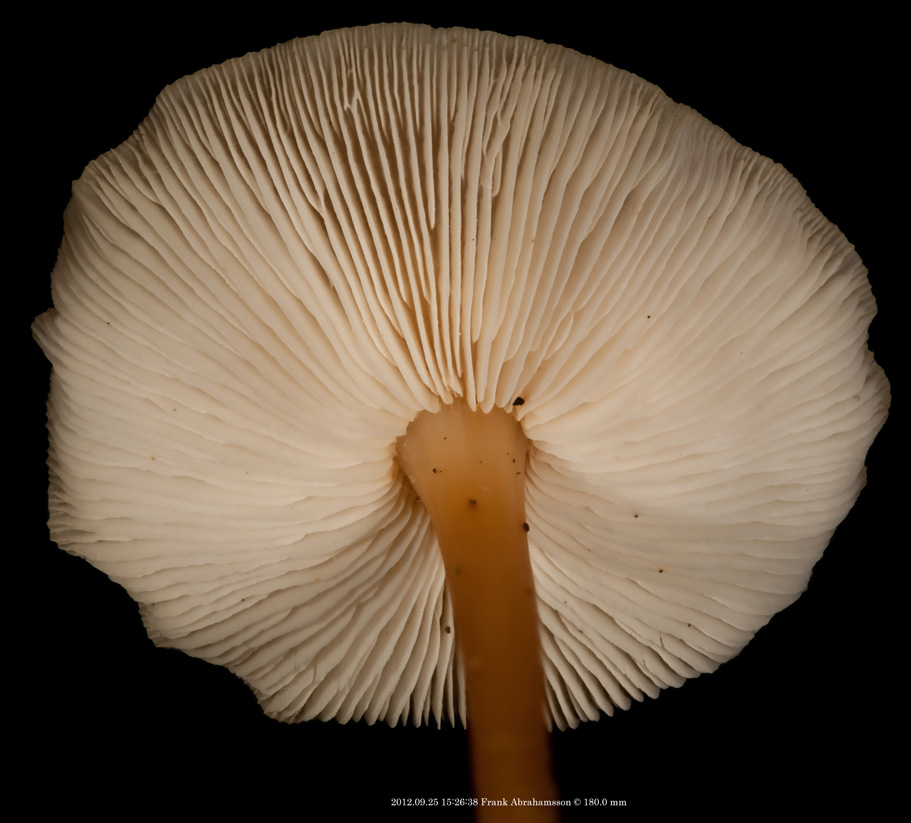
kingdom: Fungi
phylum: Basidiomycota
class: Agaricomycetes
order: Agaricales
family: Omphalotaceae
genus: Gymnopus
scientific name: Gymnopus dryophilus
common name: løv-fladhat
